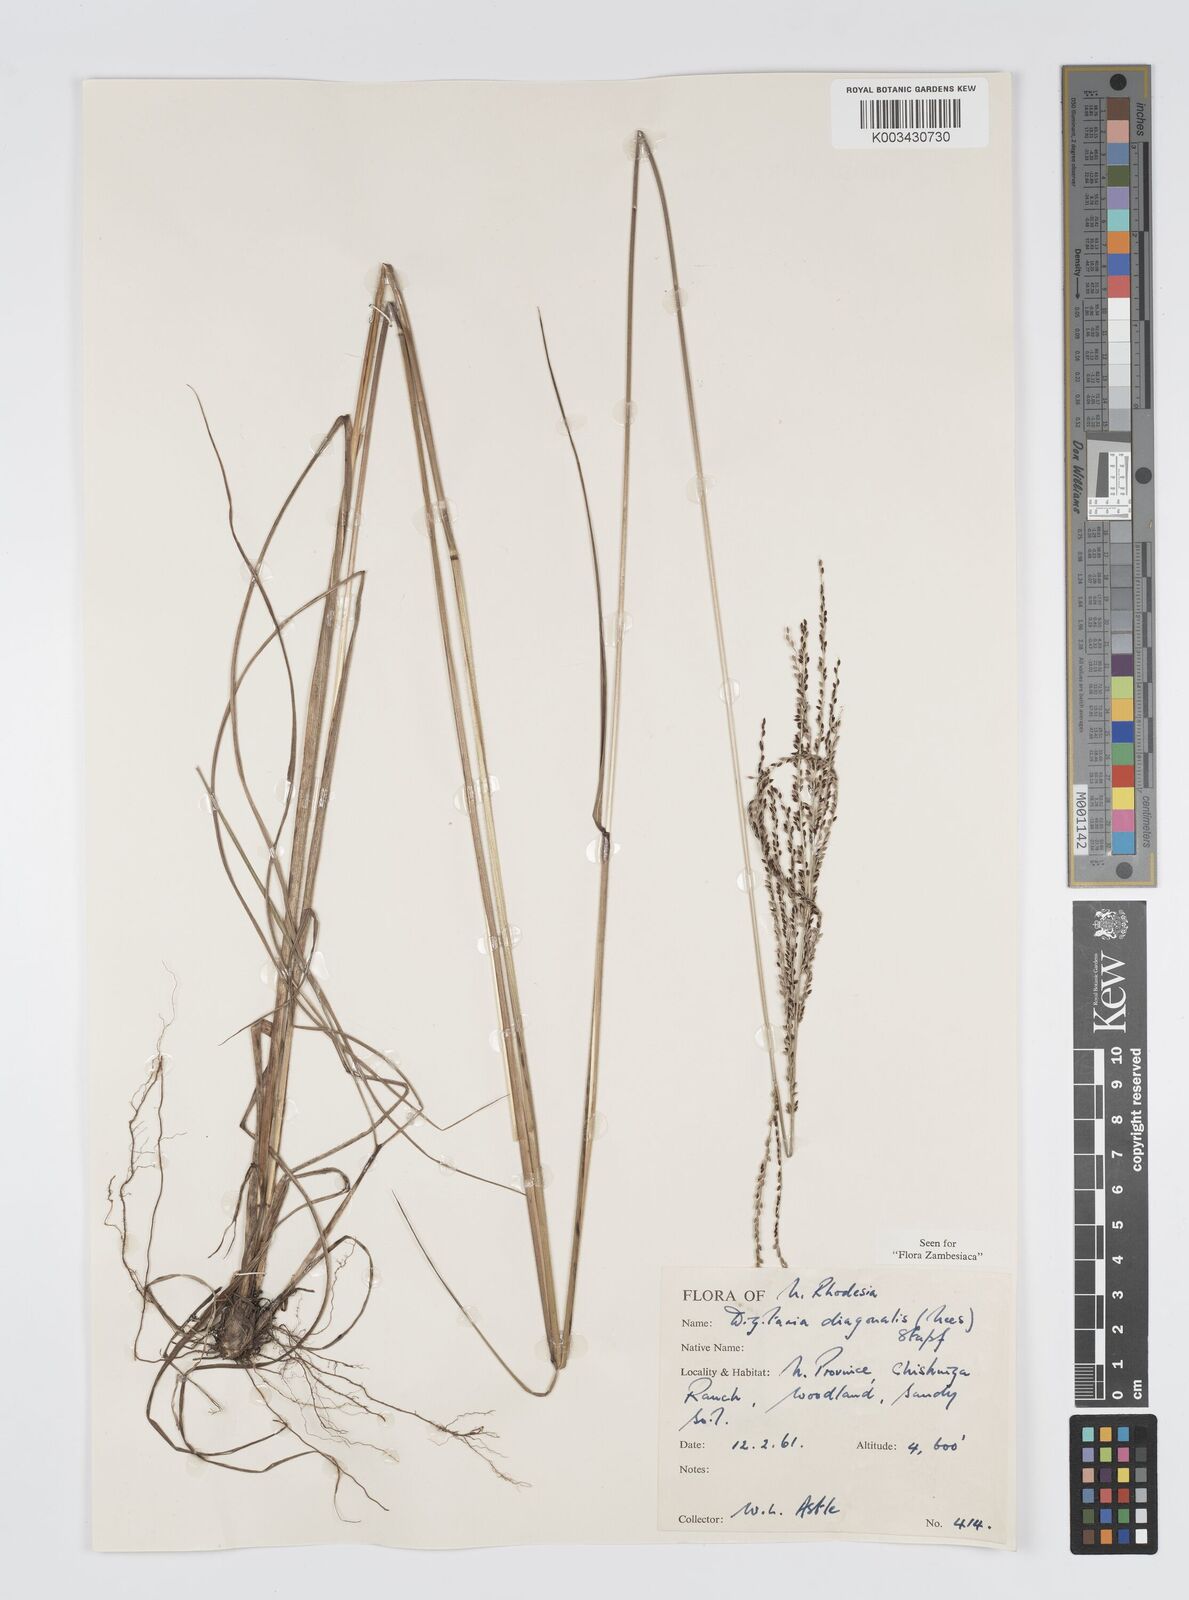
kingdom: Plantae
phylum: Tracheophyta
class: Liliopsida
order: Poales
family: Poaceae
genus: Digitaria
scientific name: Digitaria diagonalis
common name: Brown-seed finger grass
